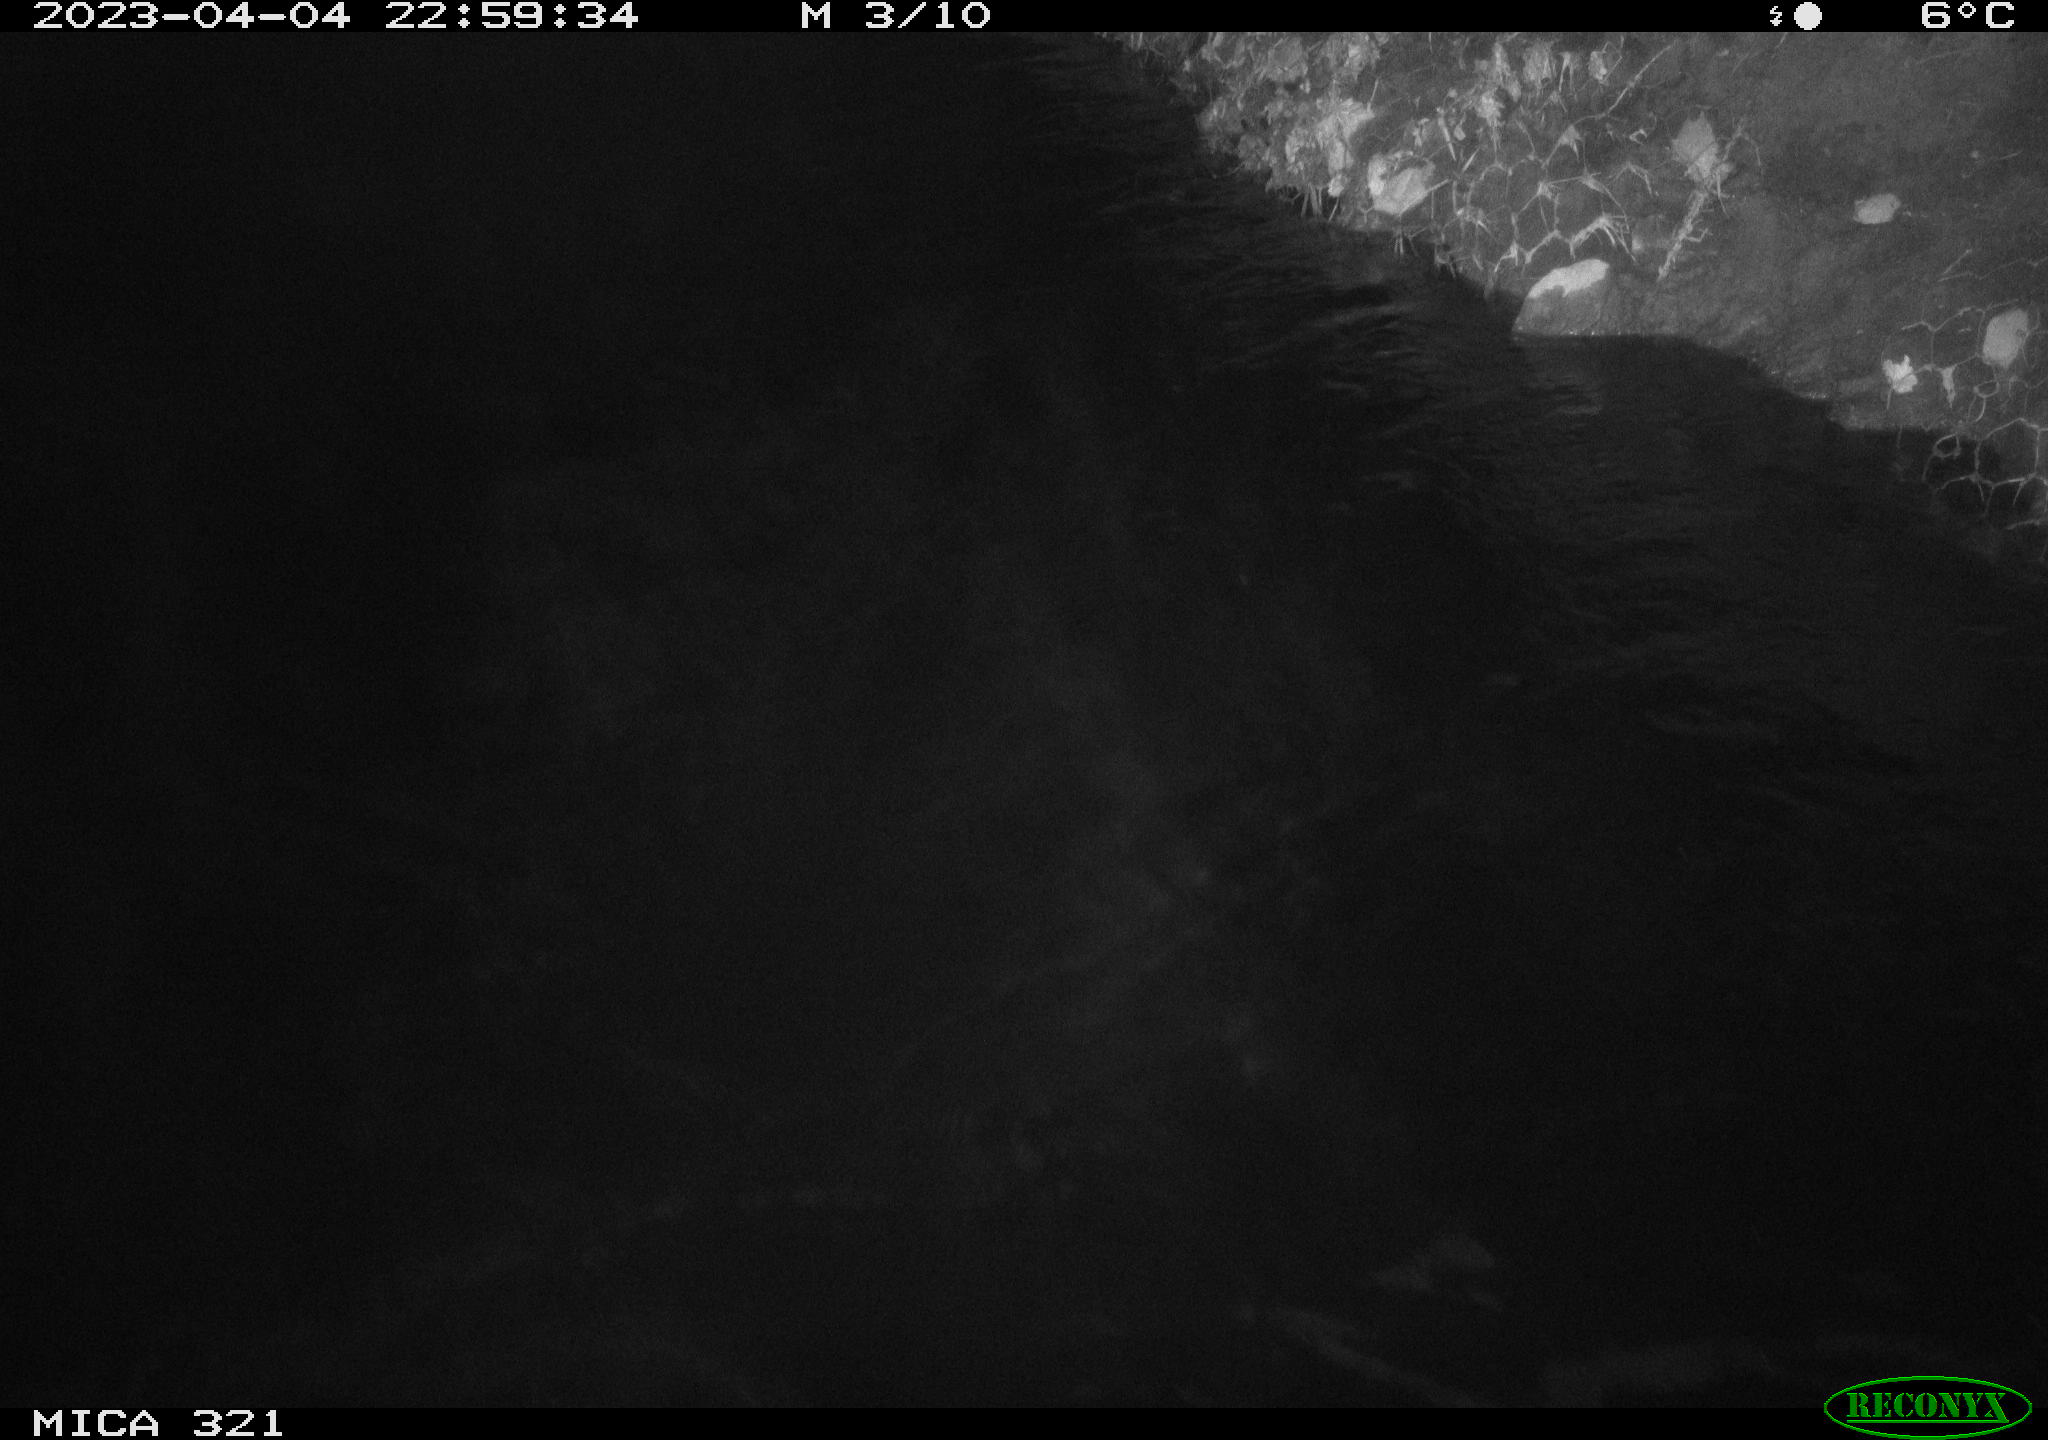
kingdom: Animalia
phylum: Chordata
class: Aves
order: Anseriformes
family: Anatidae
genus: Anas
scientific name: Anas
